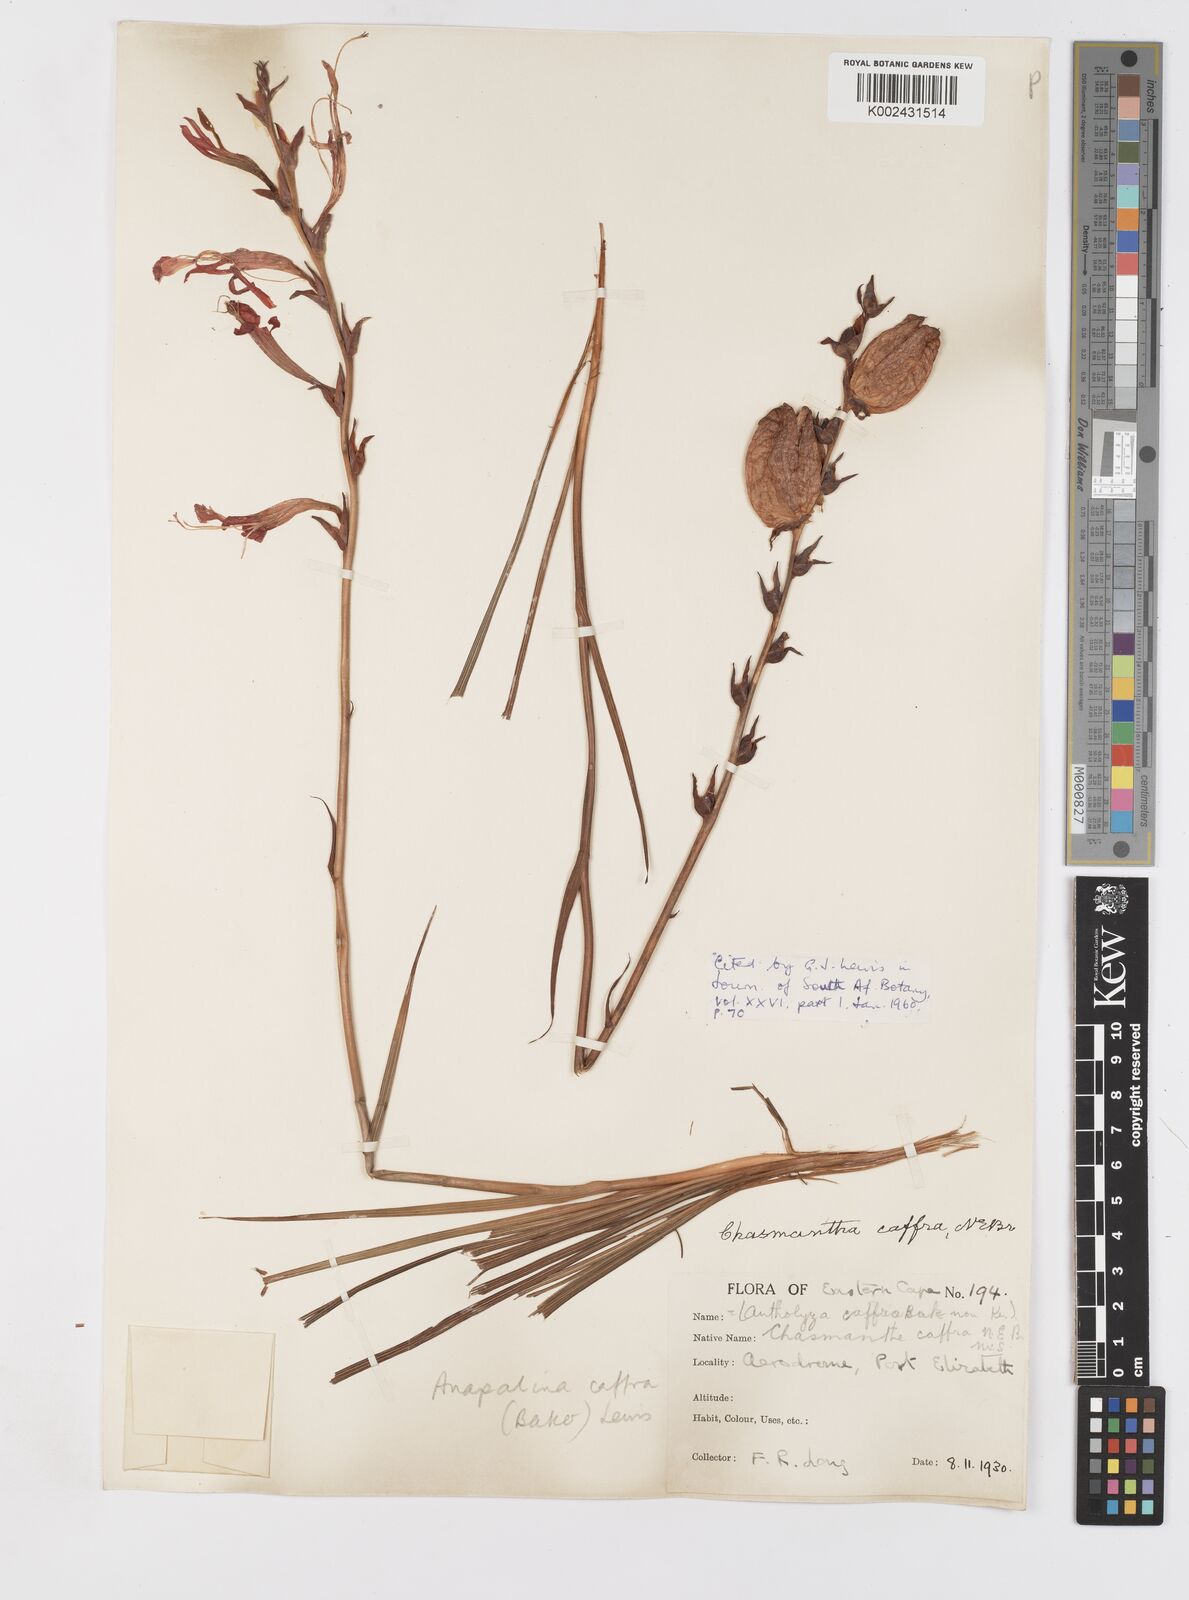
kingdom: Plantae
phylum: Tracheophyta
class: Liliopsida
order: Asparagales
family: Iridaceae
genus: Tritoniopsis
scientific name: Tritoniopsis caffra
